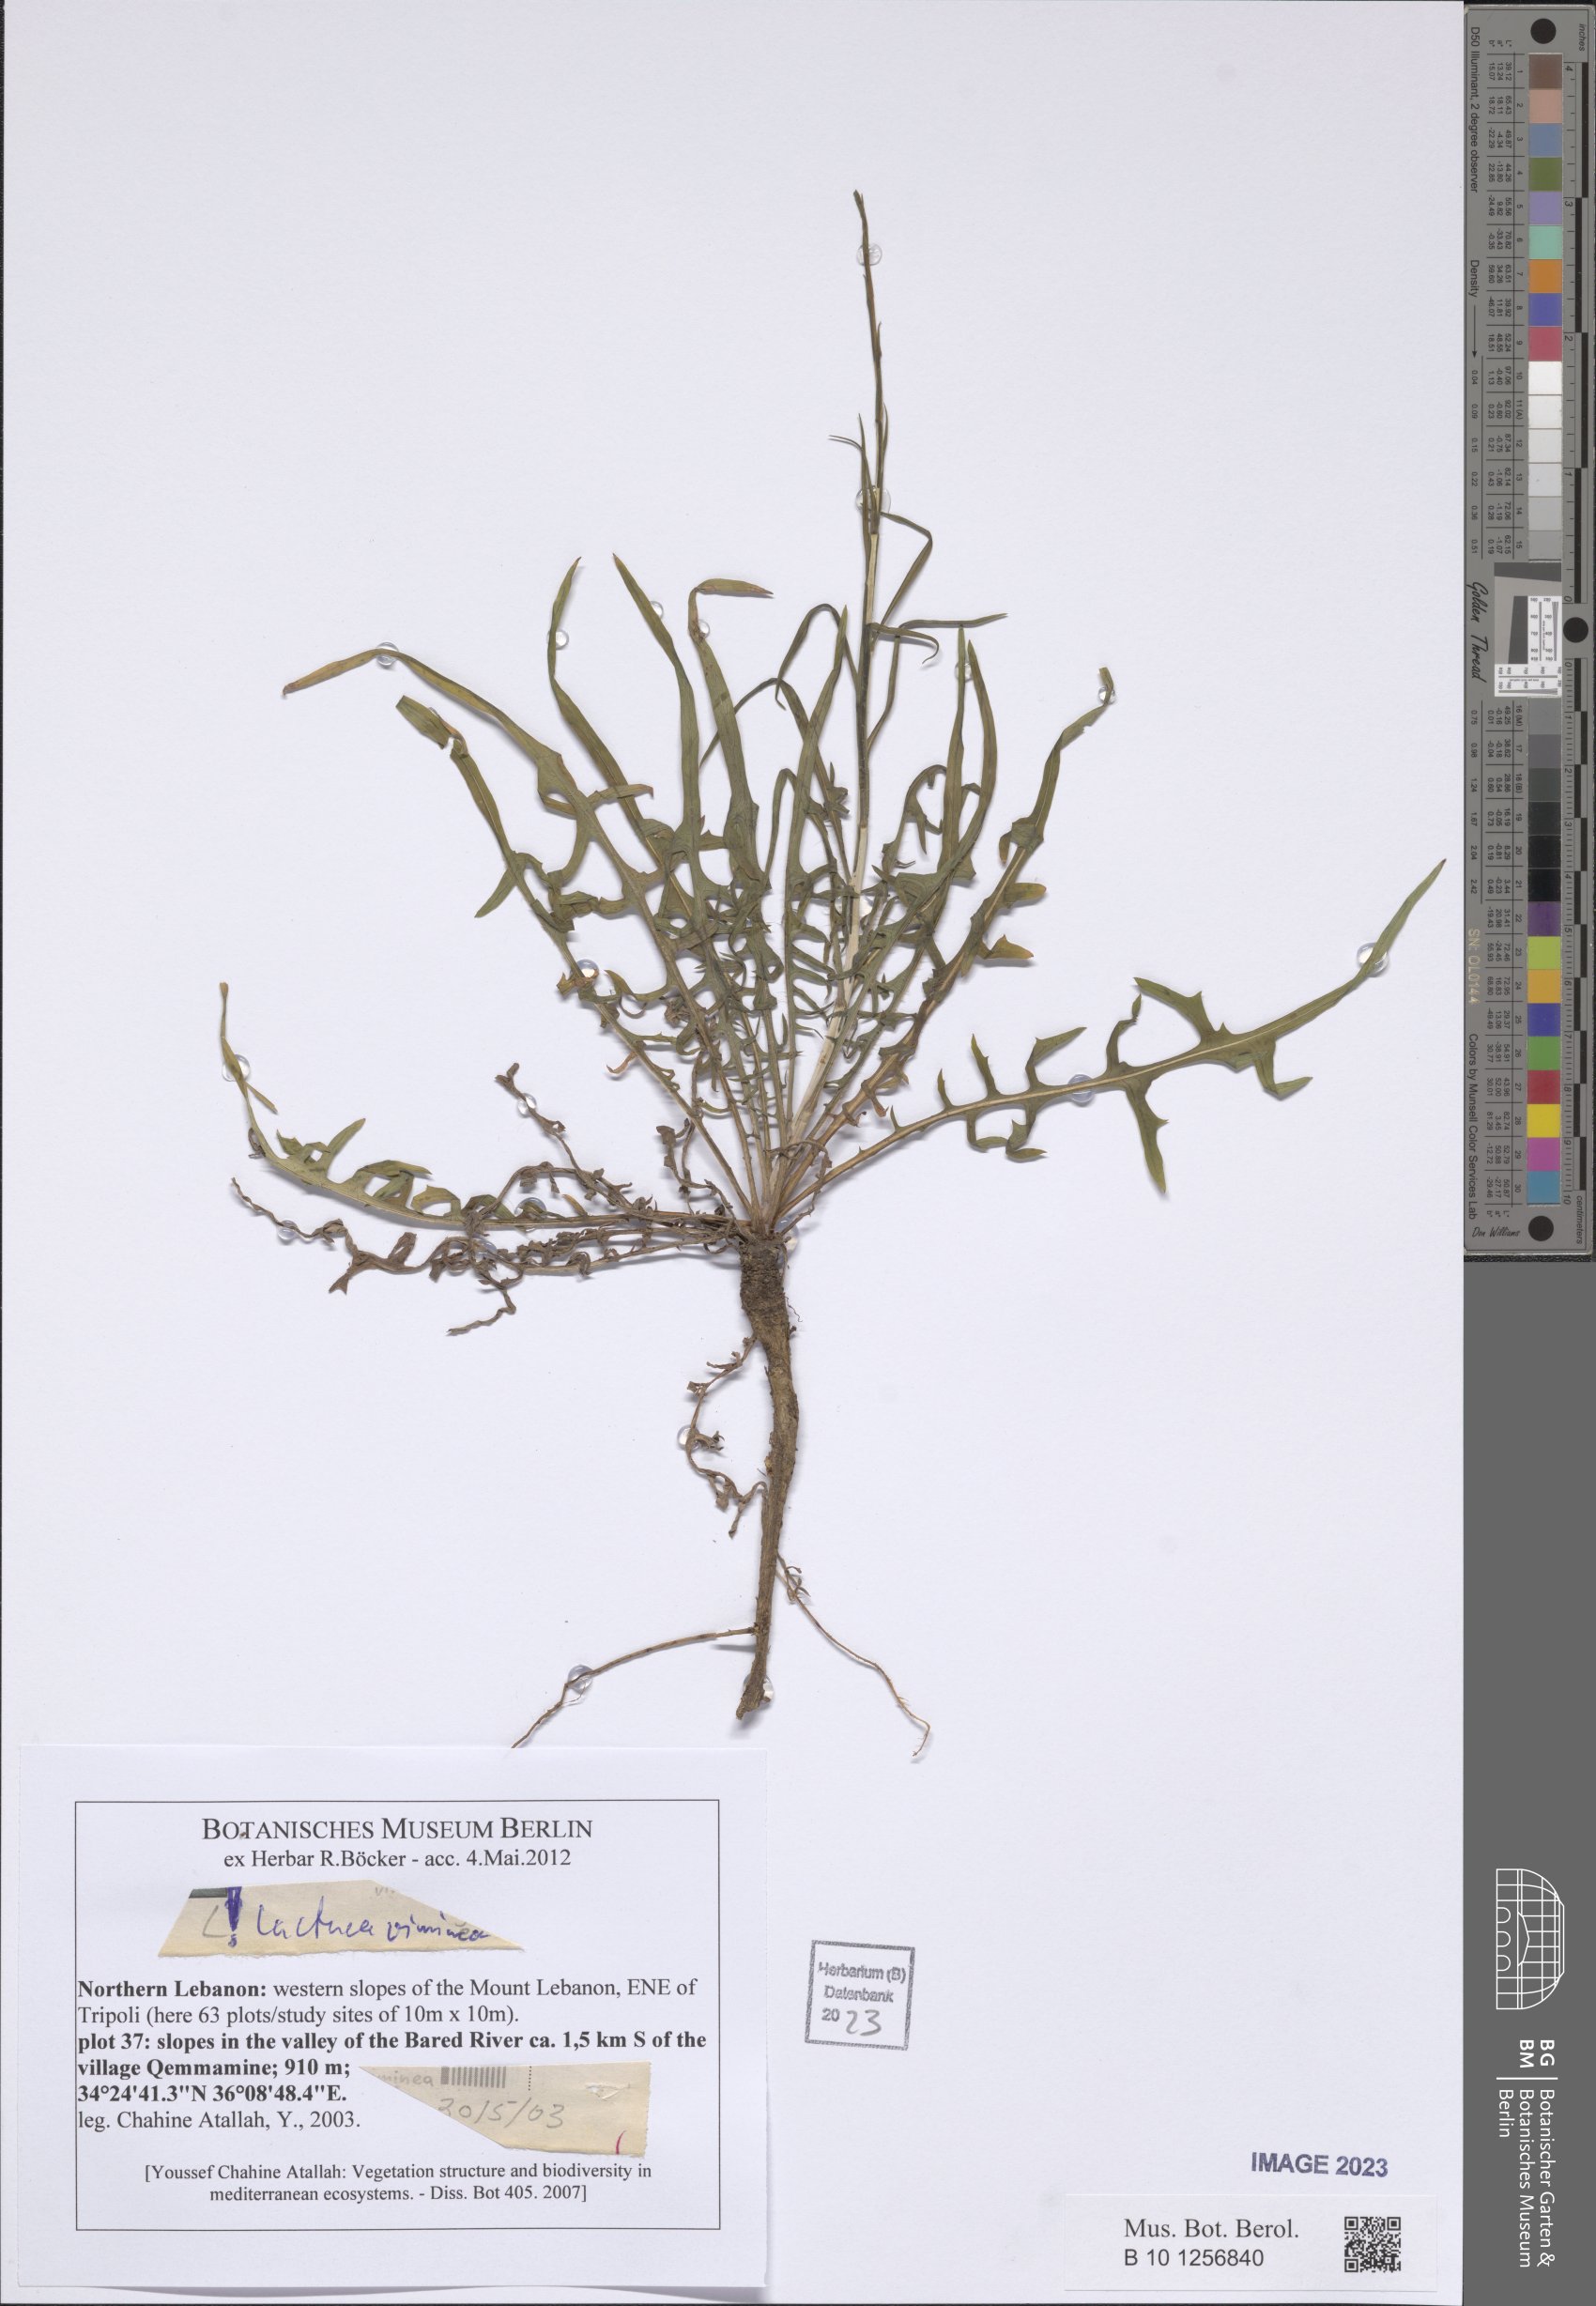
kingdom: Plantae
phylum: Tracheophyta
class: Magnoliopsida
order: Asterales
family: Asteraceae
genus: Lactuca
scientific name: Lactuca viminea
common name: Pliant lettuce
